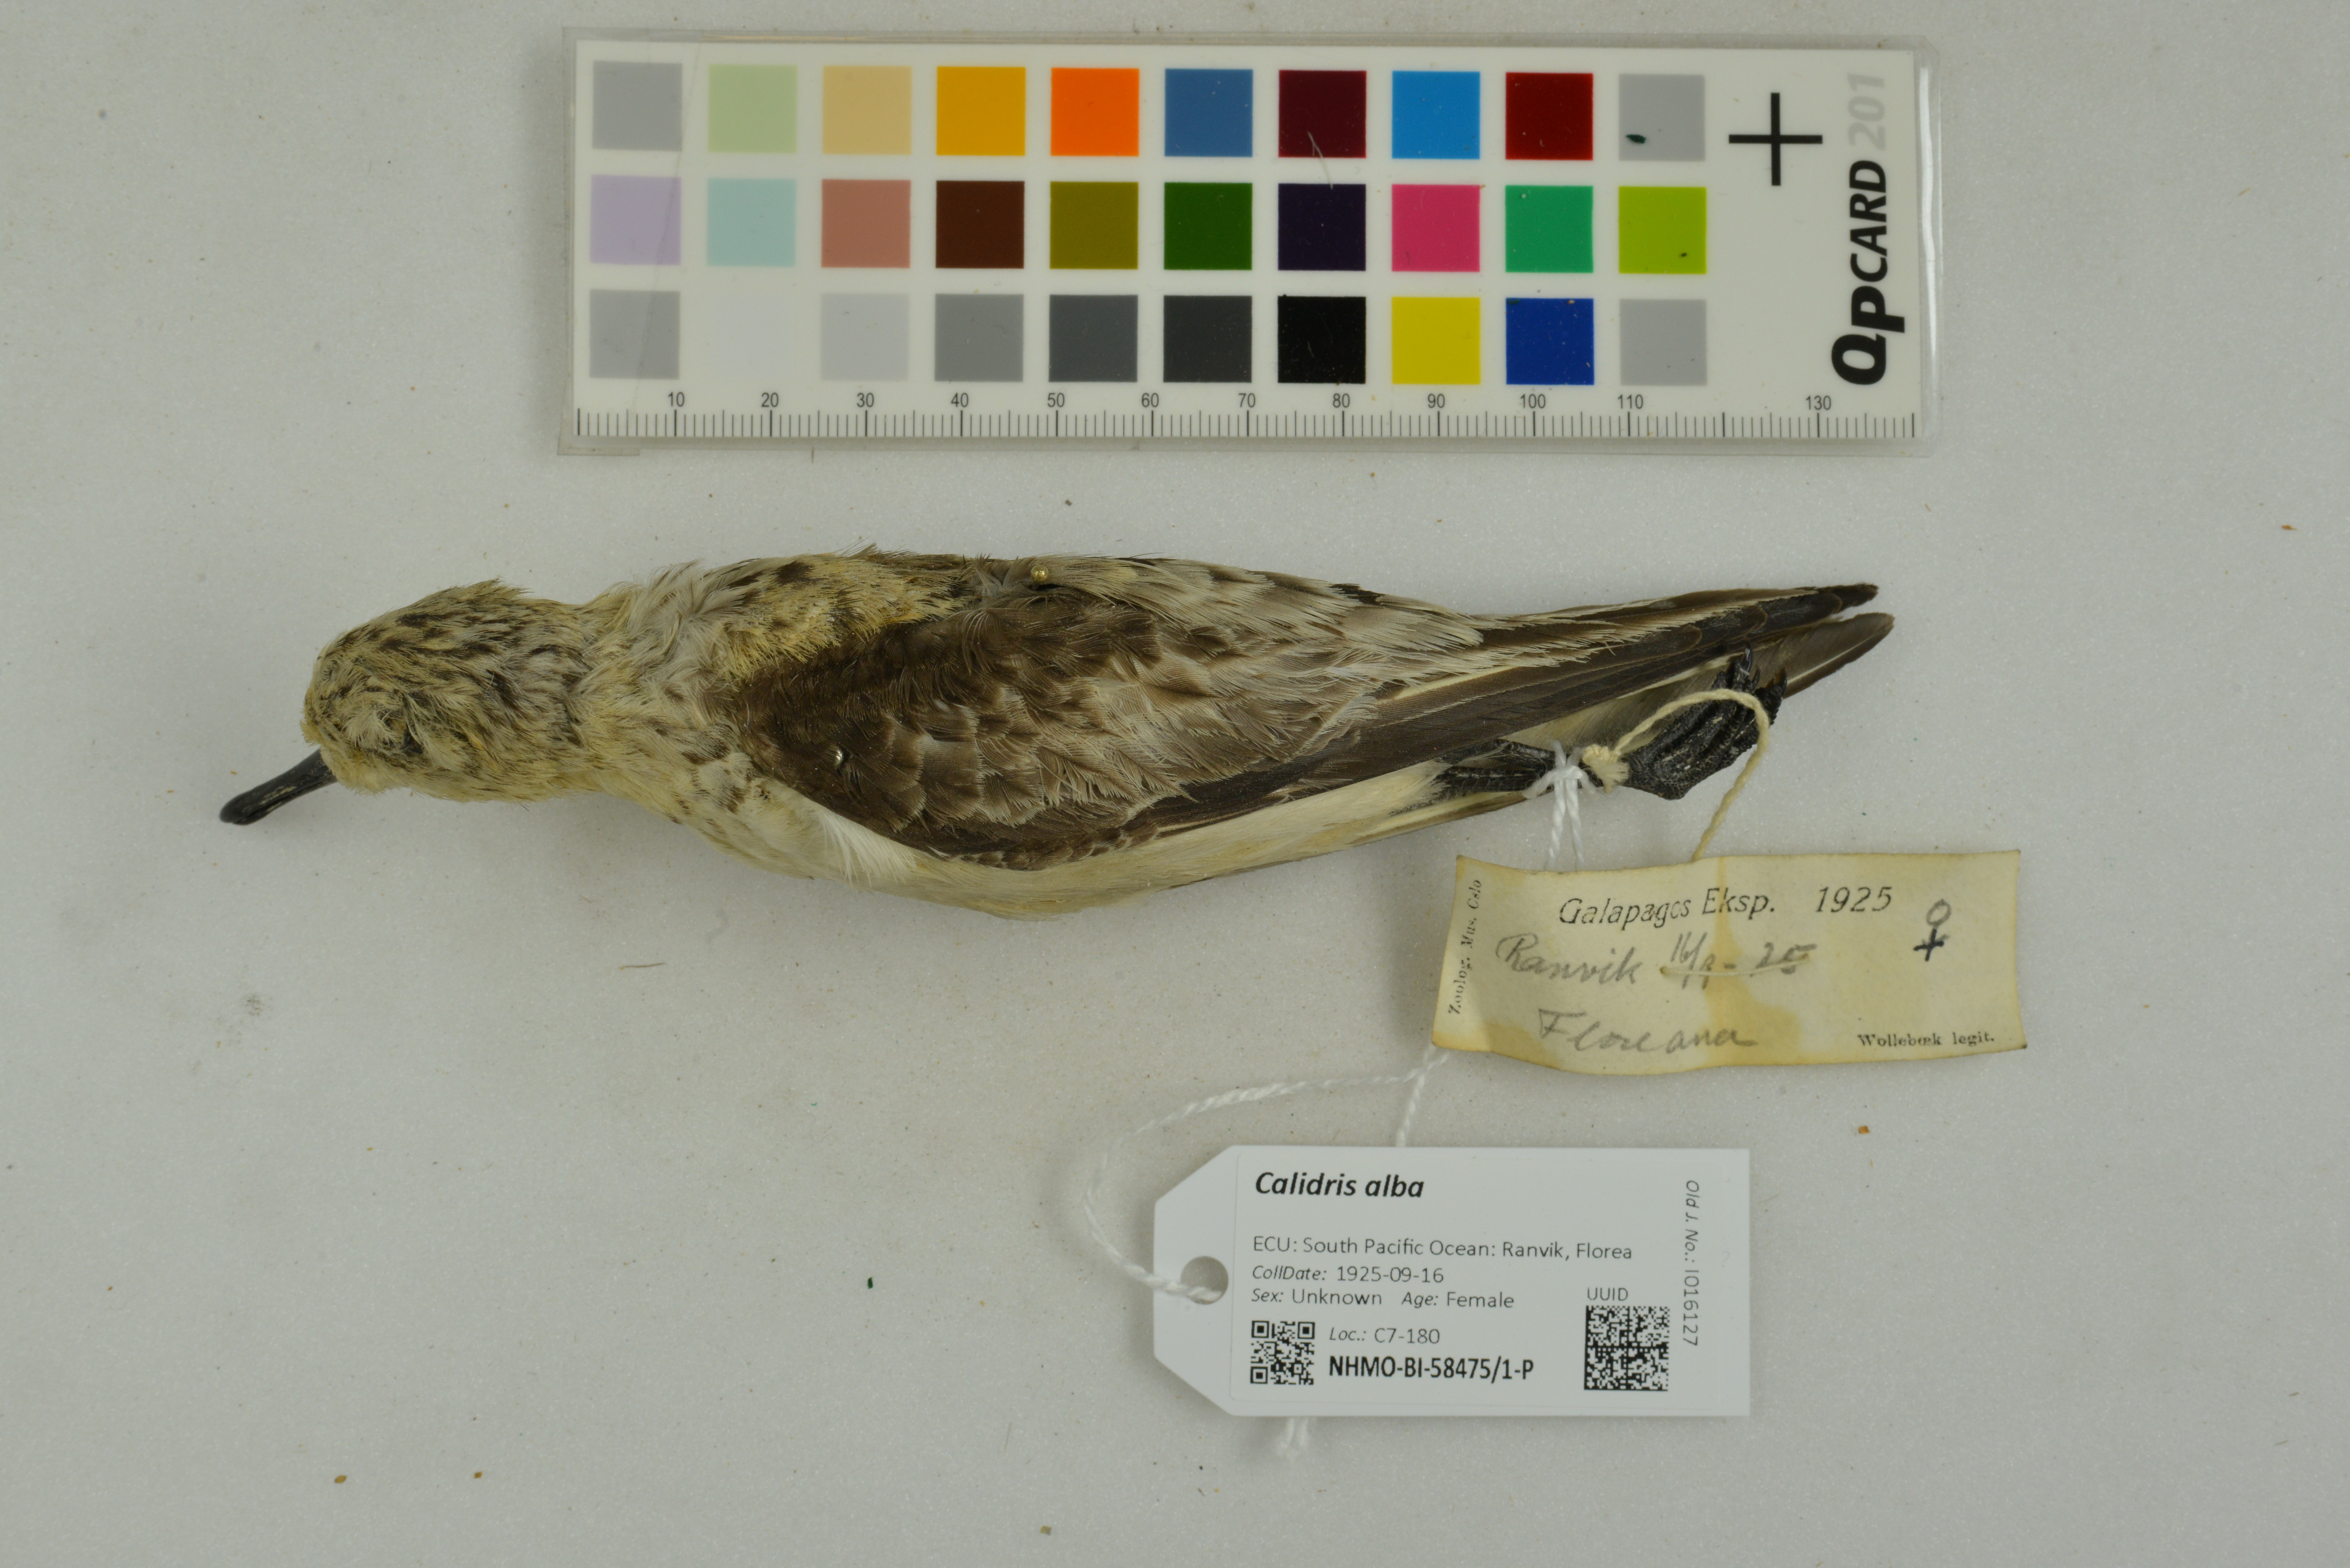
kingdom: Animalia
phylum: Chordata
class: Aves
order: Charadriiformes
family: Scolopacidae
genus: Calidris
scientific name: Calidris alba
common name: Sanderling
